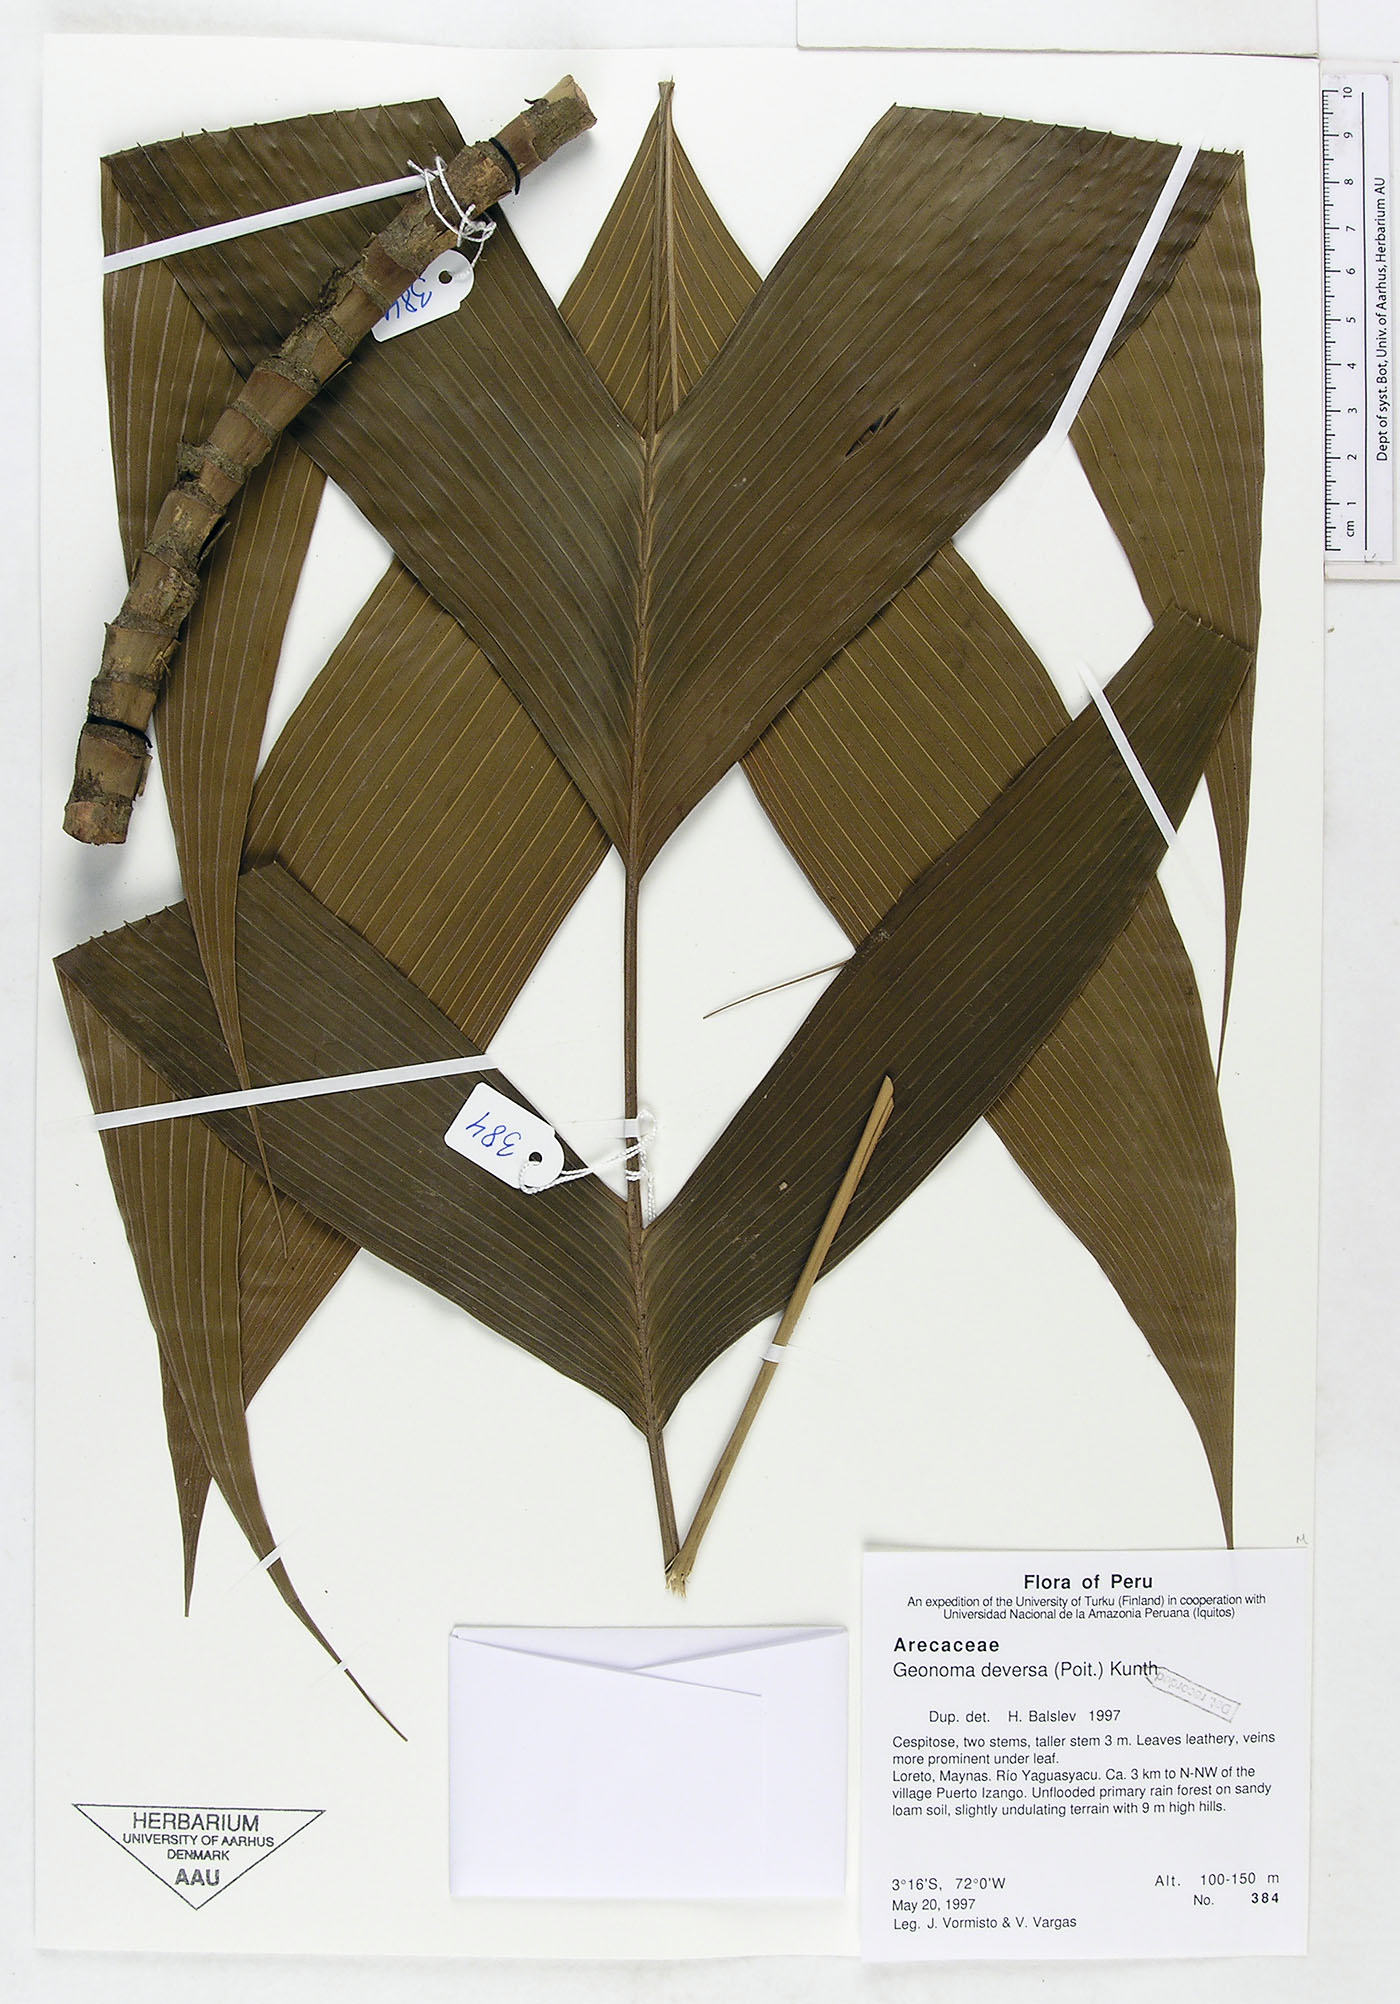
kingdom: Plantae
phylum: Tracheophyta
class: Liliopsida
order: Arecales
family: Arecaceae
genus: Geonoma
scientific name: Geonoma deversa
